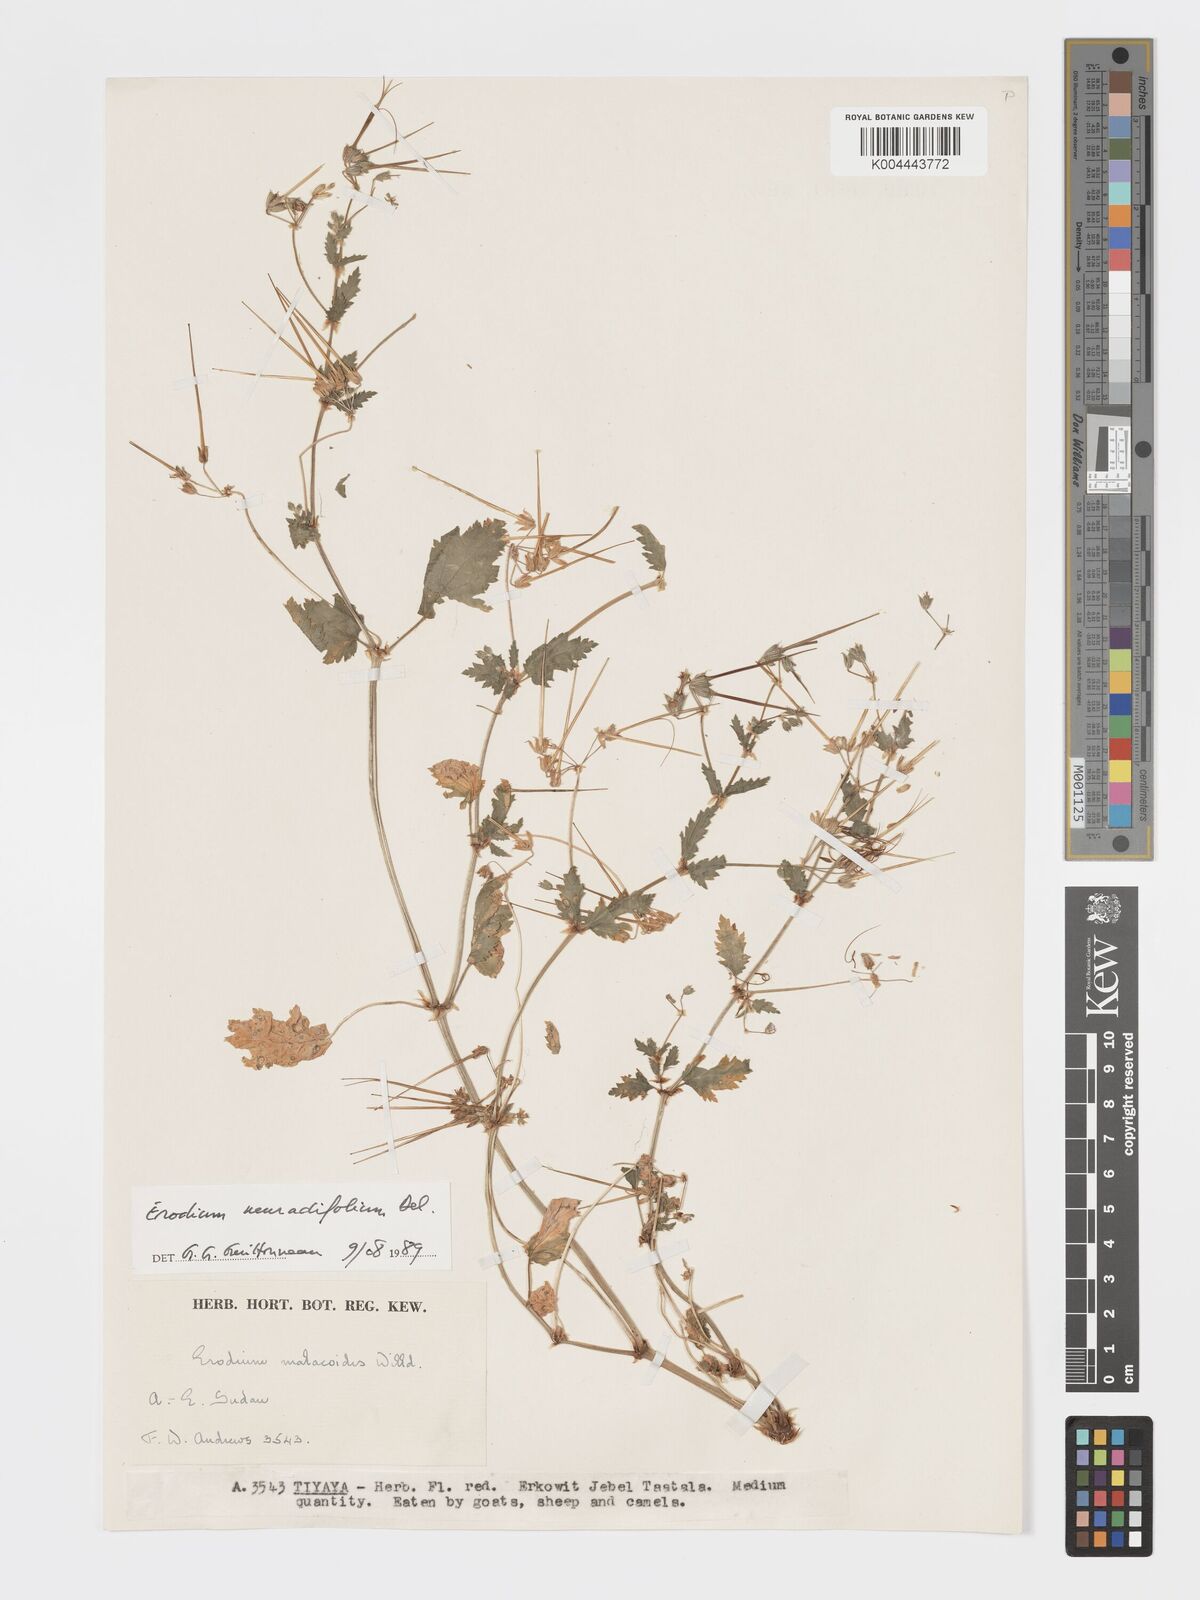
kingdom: Plantae
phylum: Tracheophyta
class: Magnoliopsida
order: Geraniales
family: Geraniaceae
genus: Erodium
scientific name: Erodium neuradifolium
